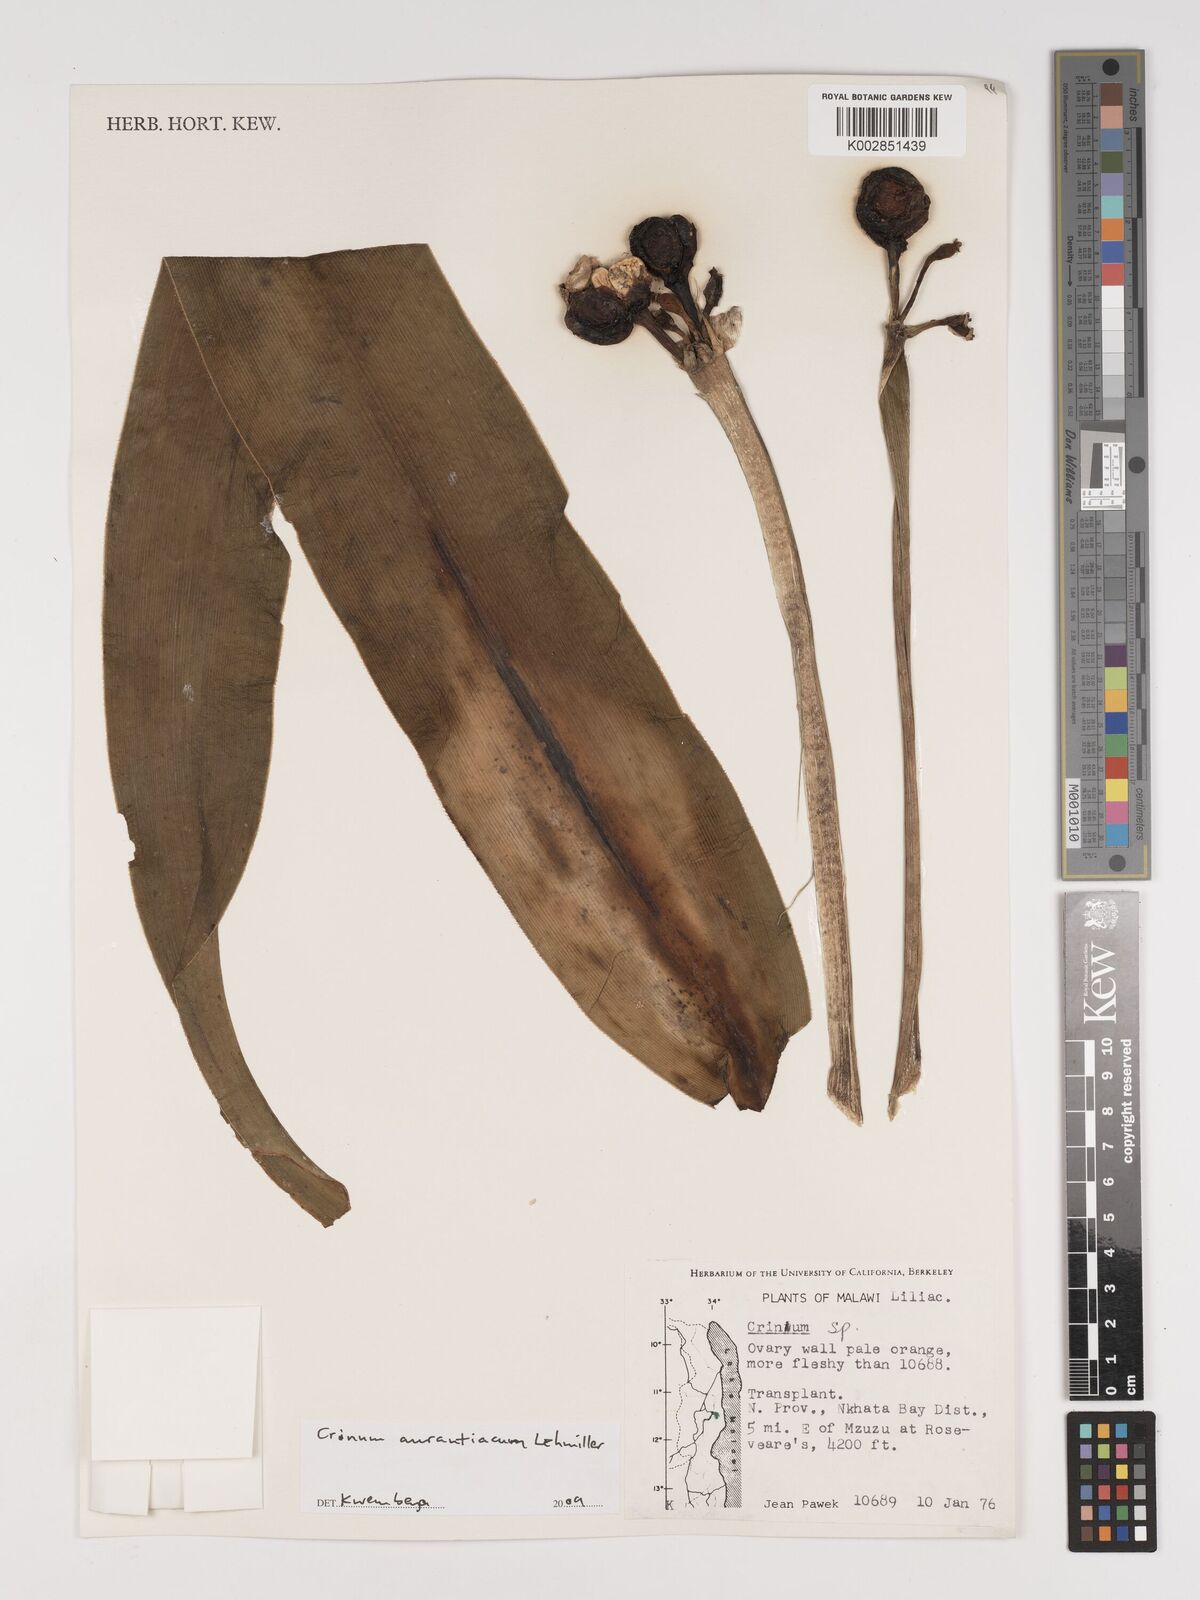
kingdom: Plantae
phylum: Tracheophyta
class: Liliopsida
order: Asparagales
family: Amaryllidaceae
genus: Crinum
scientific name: Crinum aurantiacum
